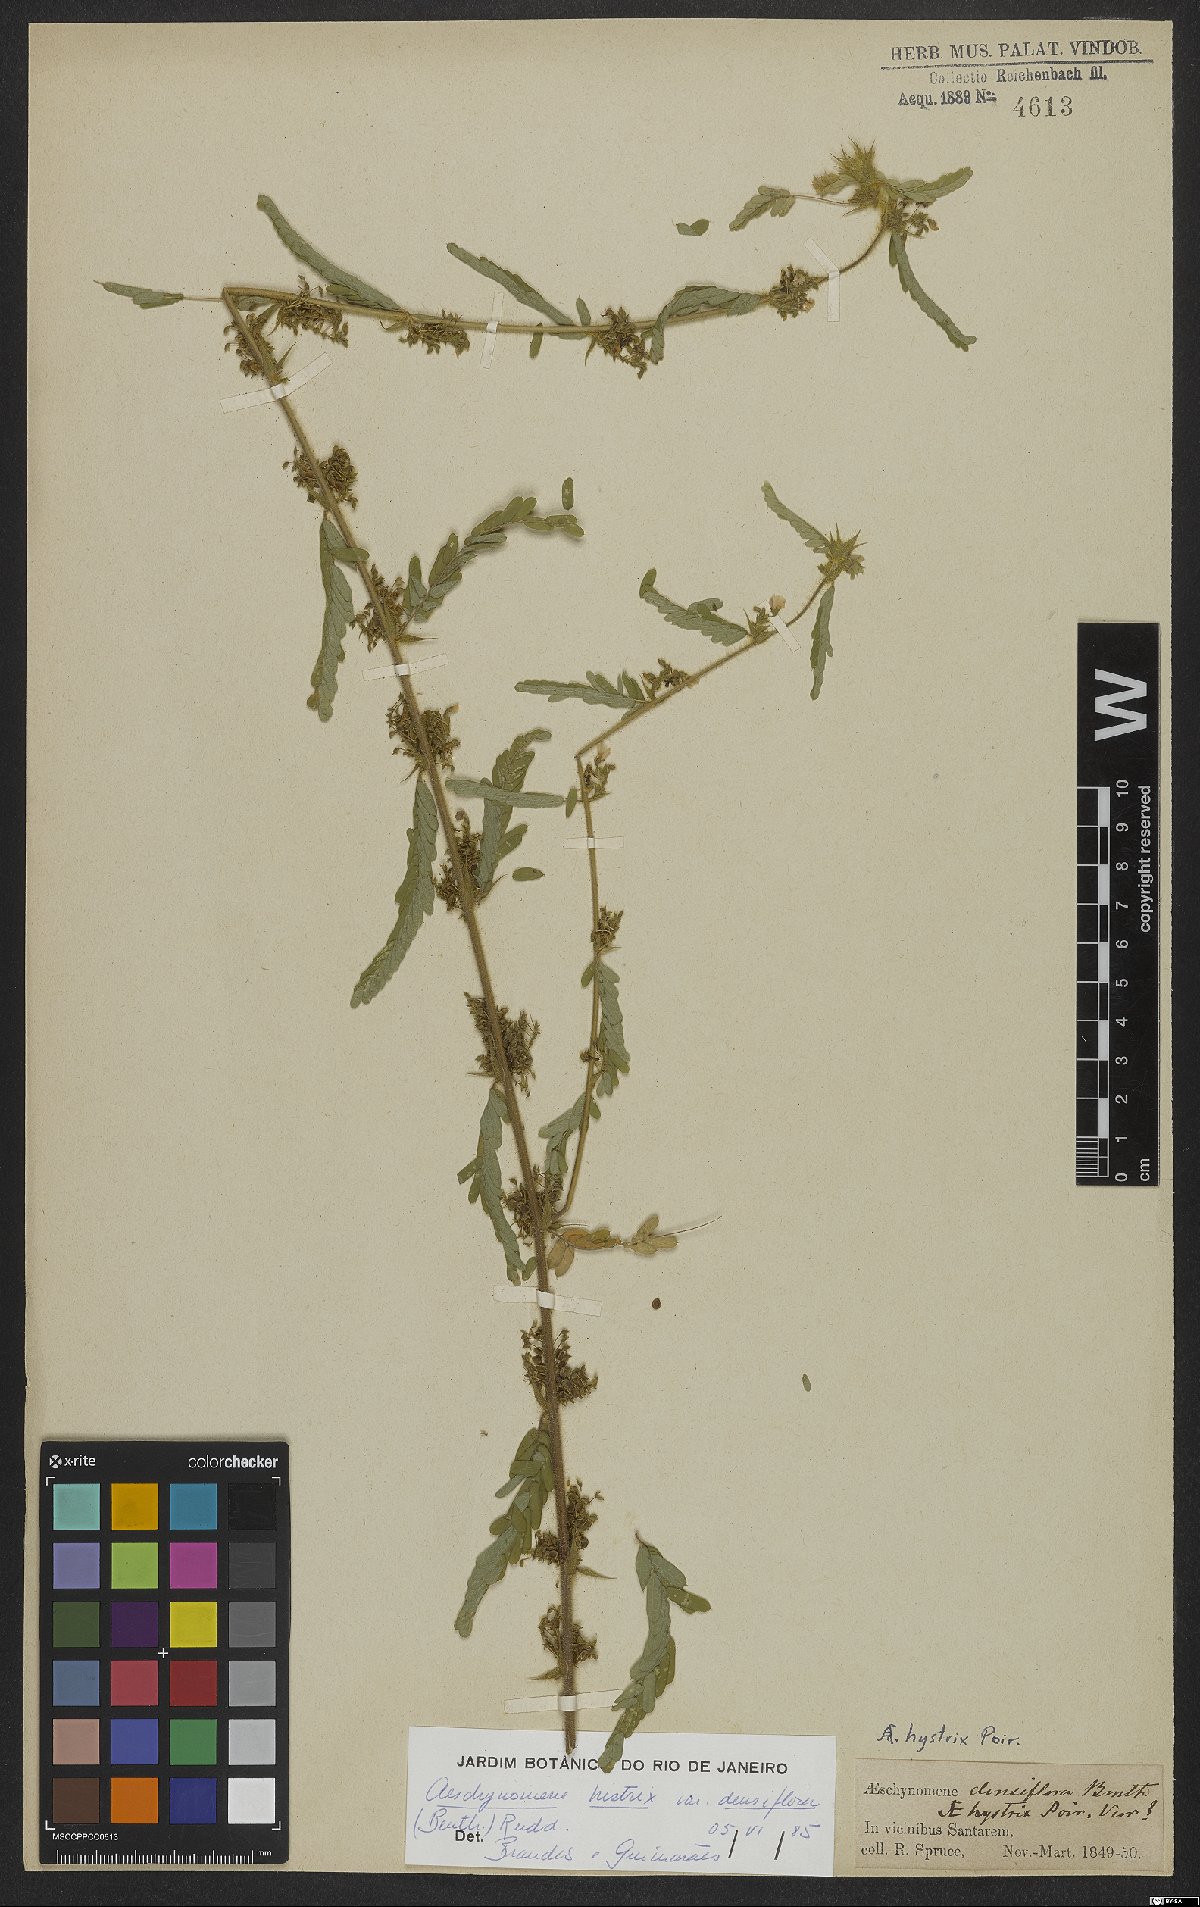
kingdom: Plantae
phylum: Tracheophyta
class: Magnoliopsida
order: Fabales
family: Fabaceae
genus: Ctenodon
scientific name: Ctenodon histrix
